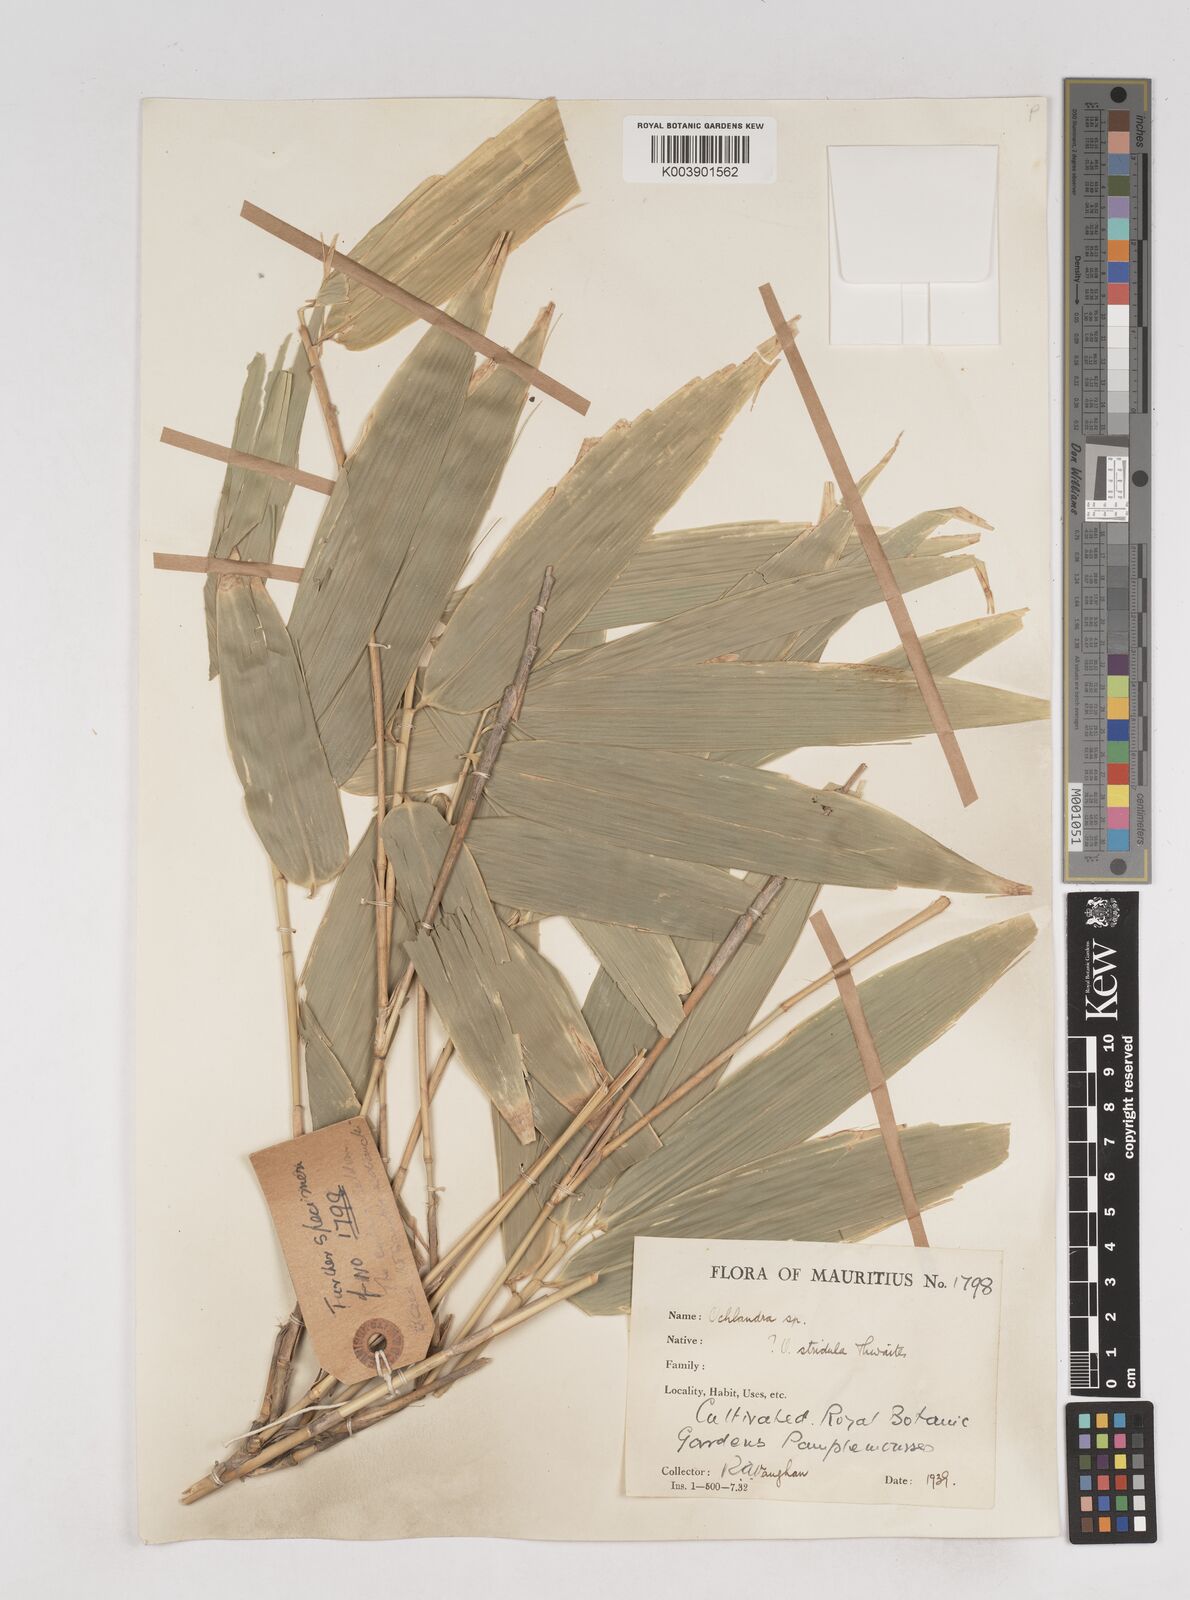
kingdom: Plantae
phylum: Tracheophyta
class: Liliopsida
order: Poales
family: Poaceae
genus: Ochlandra
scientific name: Ochlandra
